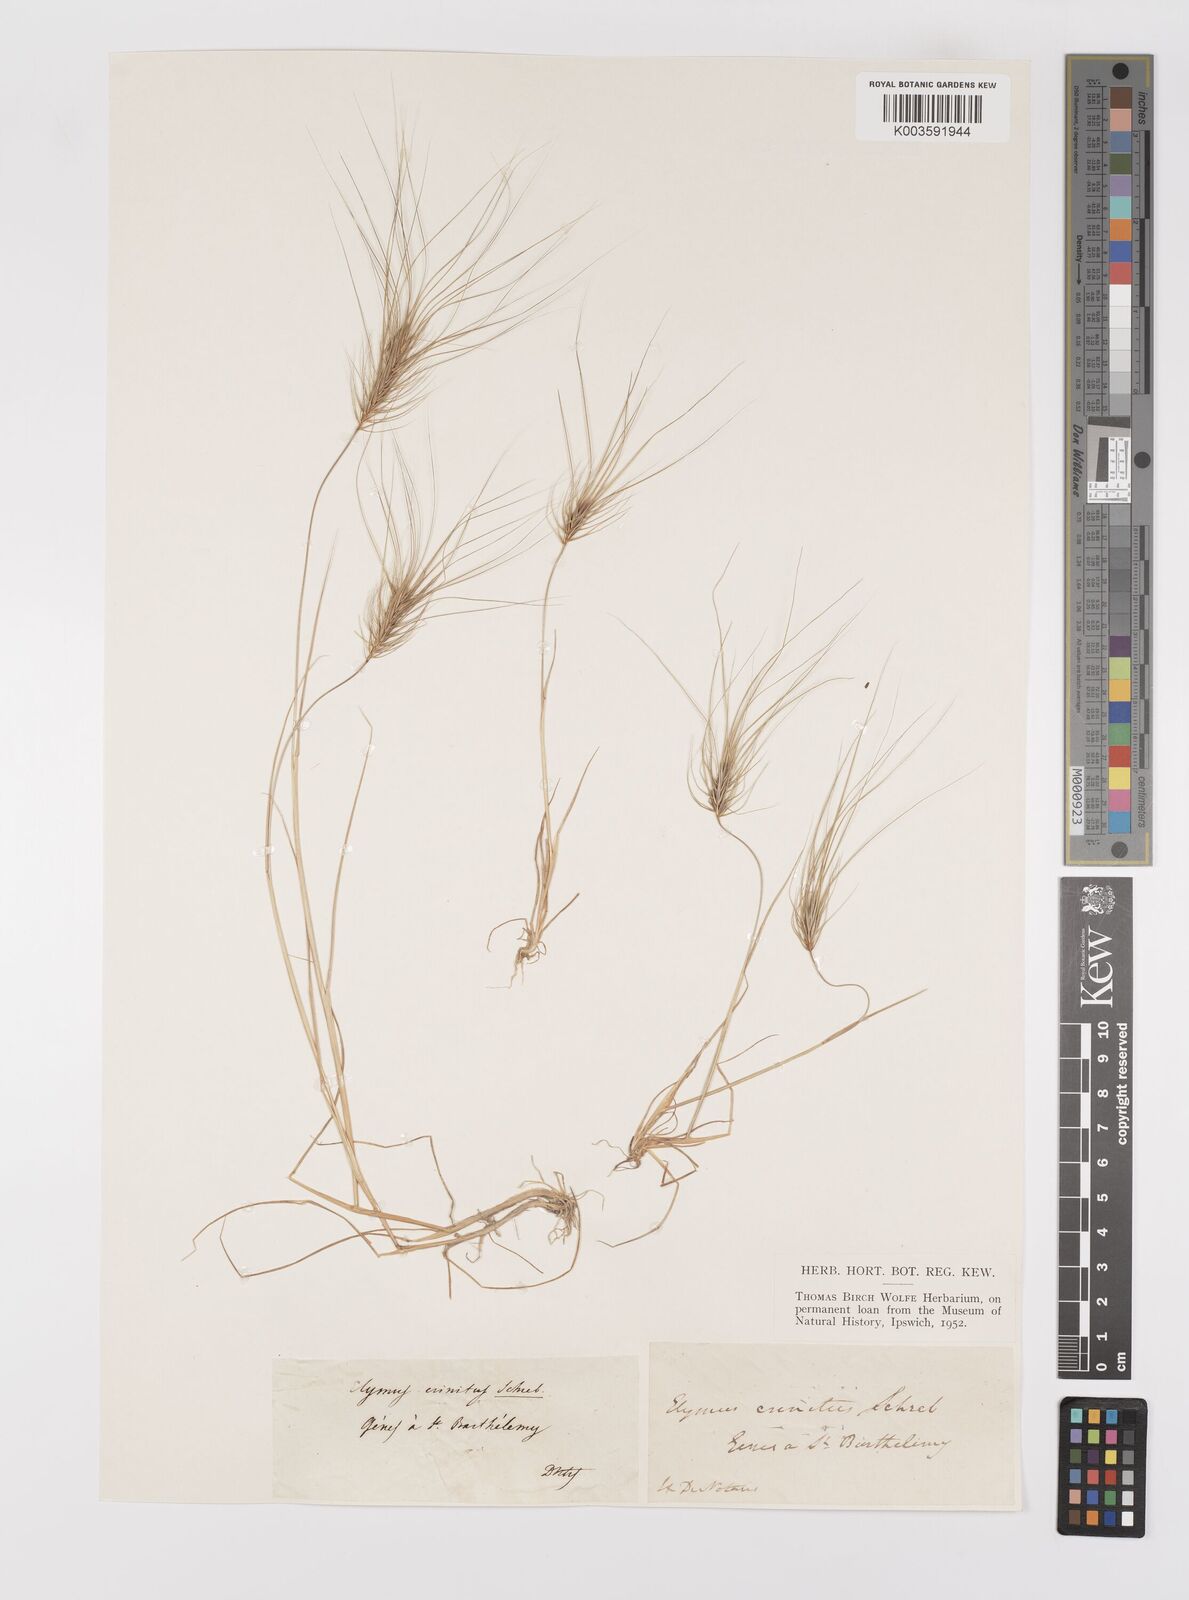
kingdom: Plantae
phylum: Tracheophyta
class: Liliopsida
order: Poales
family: Poaceae
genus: Taeniatherum
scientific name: Taeniatherum caput-medusae
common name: Medusahead
